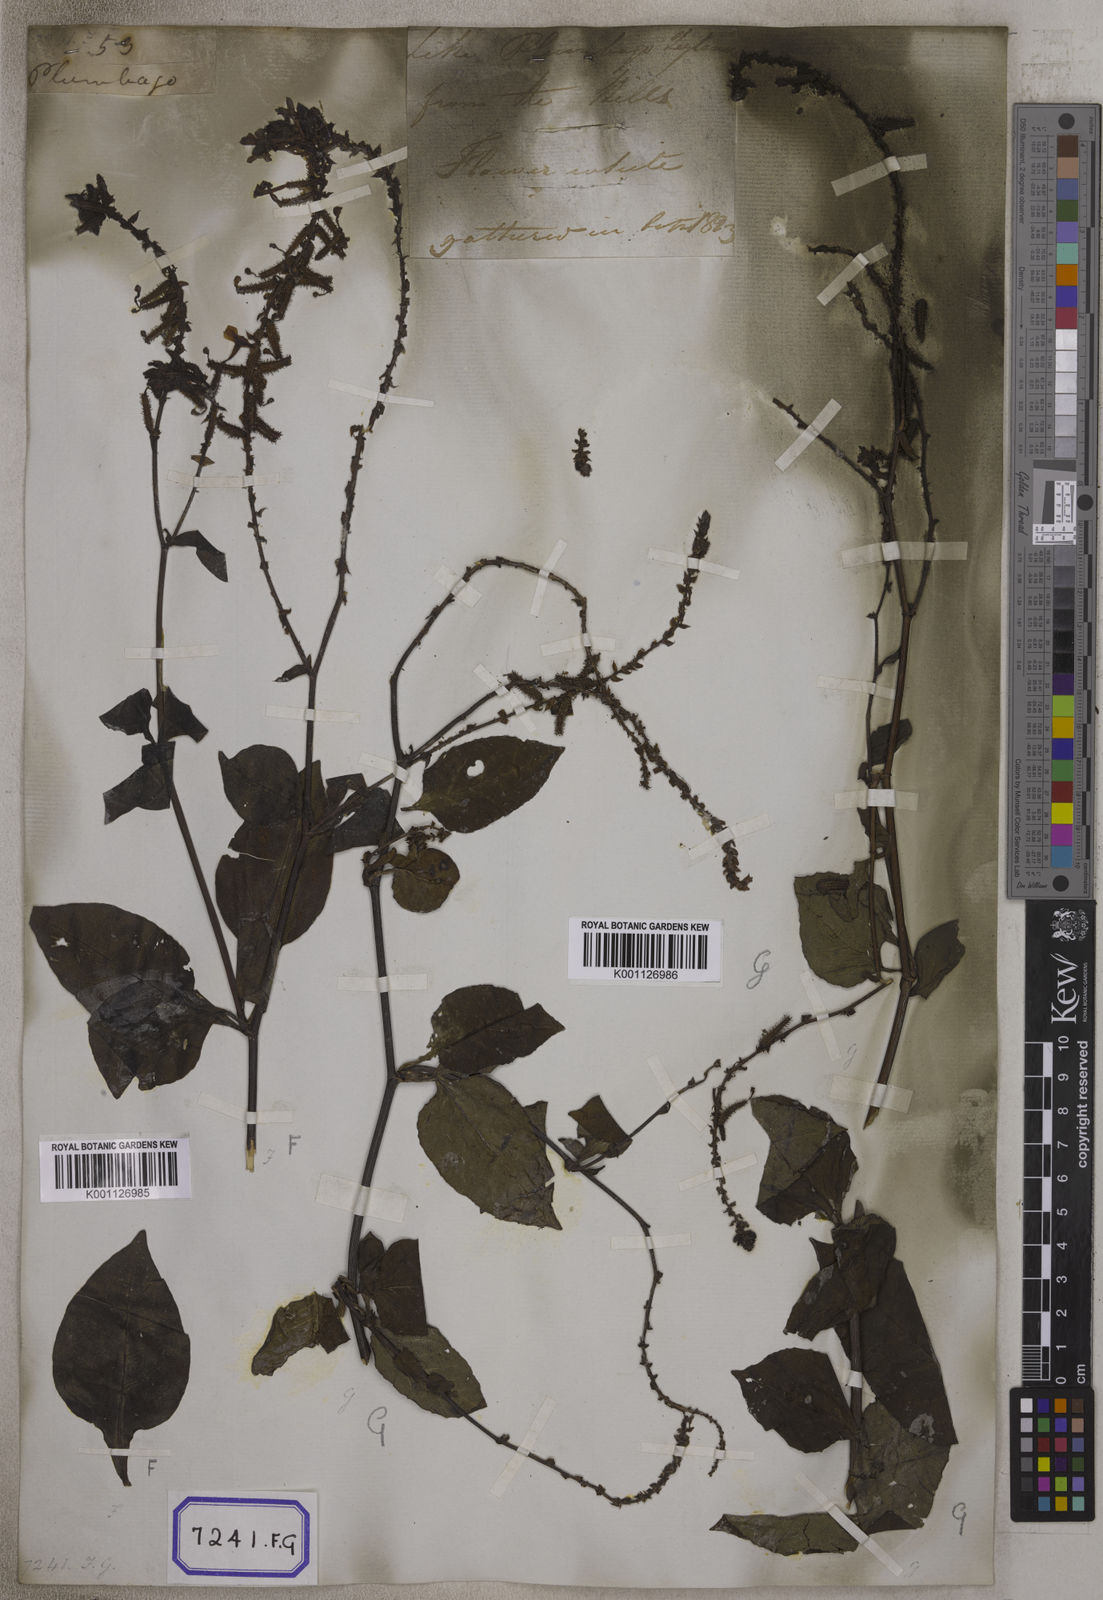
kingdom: Plantae
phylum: Tracheophyta
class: Magnoliopsida
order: Caryophyllales
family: Plumbaginaceae
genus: Plumbago
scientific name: Plumbago zeylanica
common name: Doctorbush
